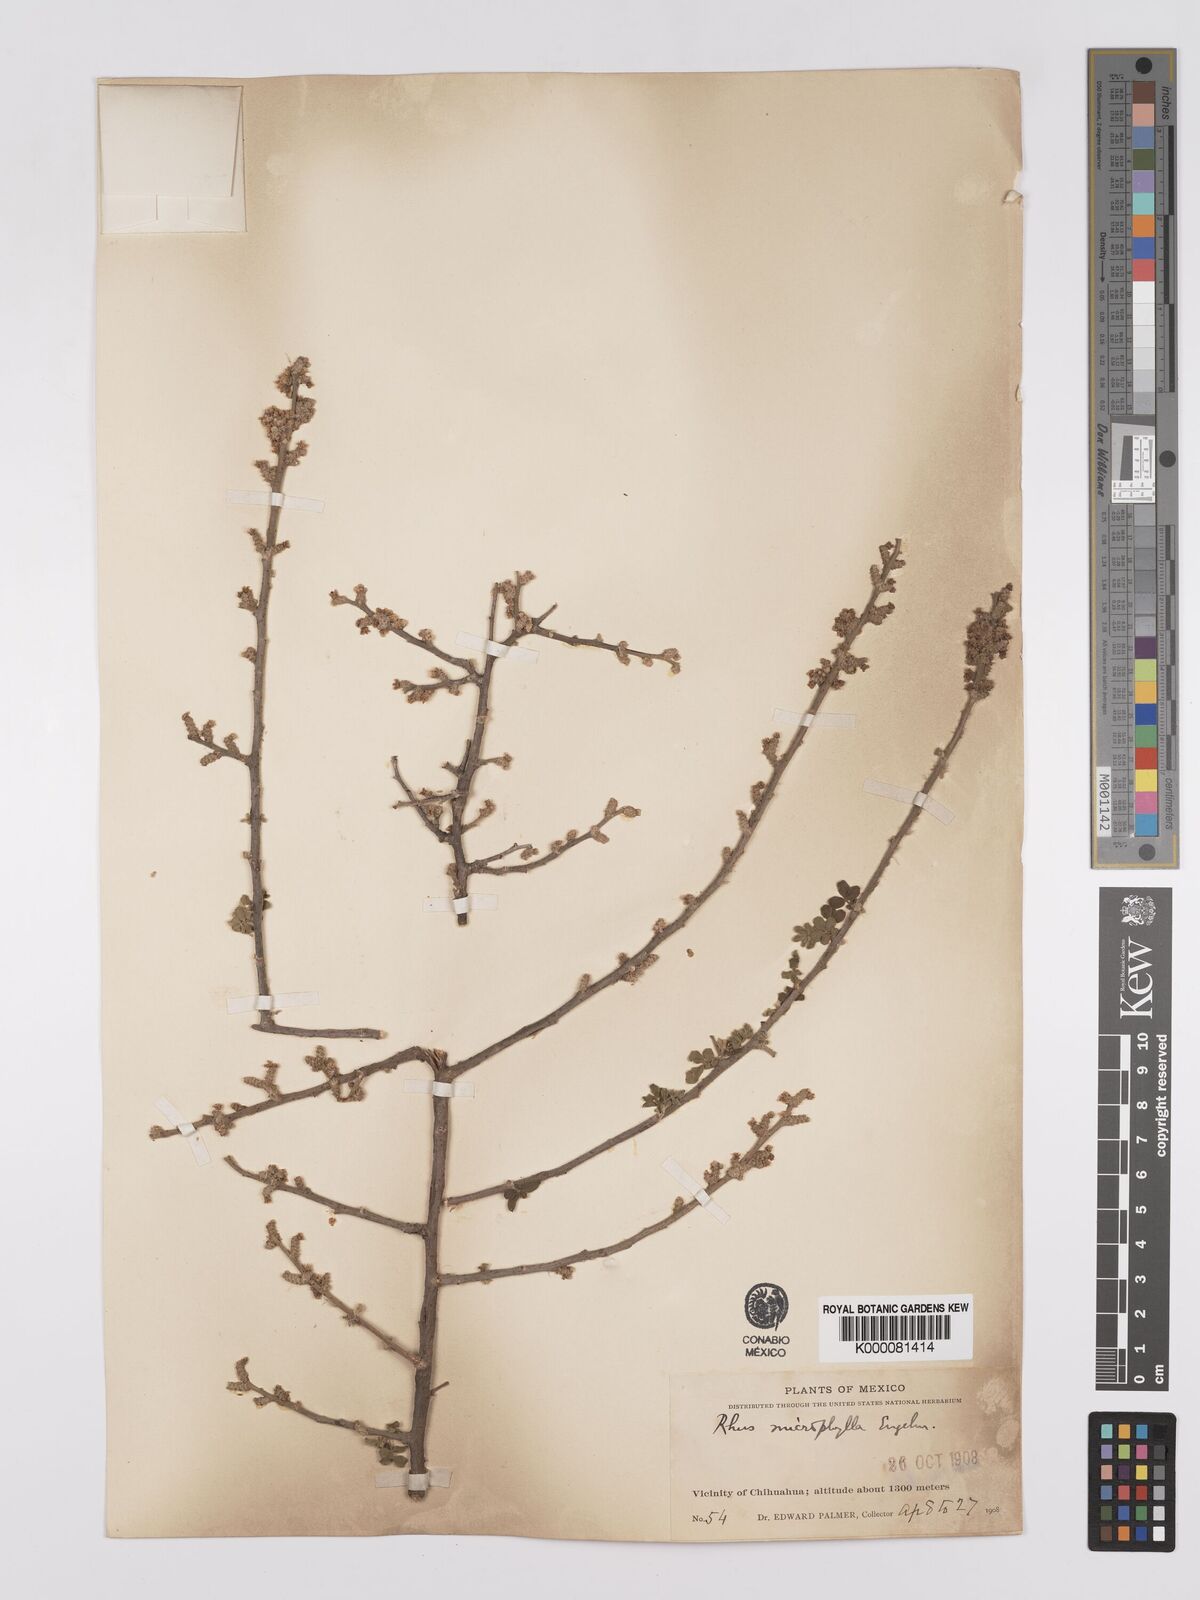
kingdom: Plantae
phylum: Tracheophyta
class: Magnoliopsida
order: Sapindales
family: Anacardiaceae
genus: Rhus
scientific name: Rhus
